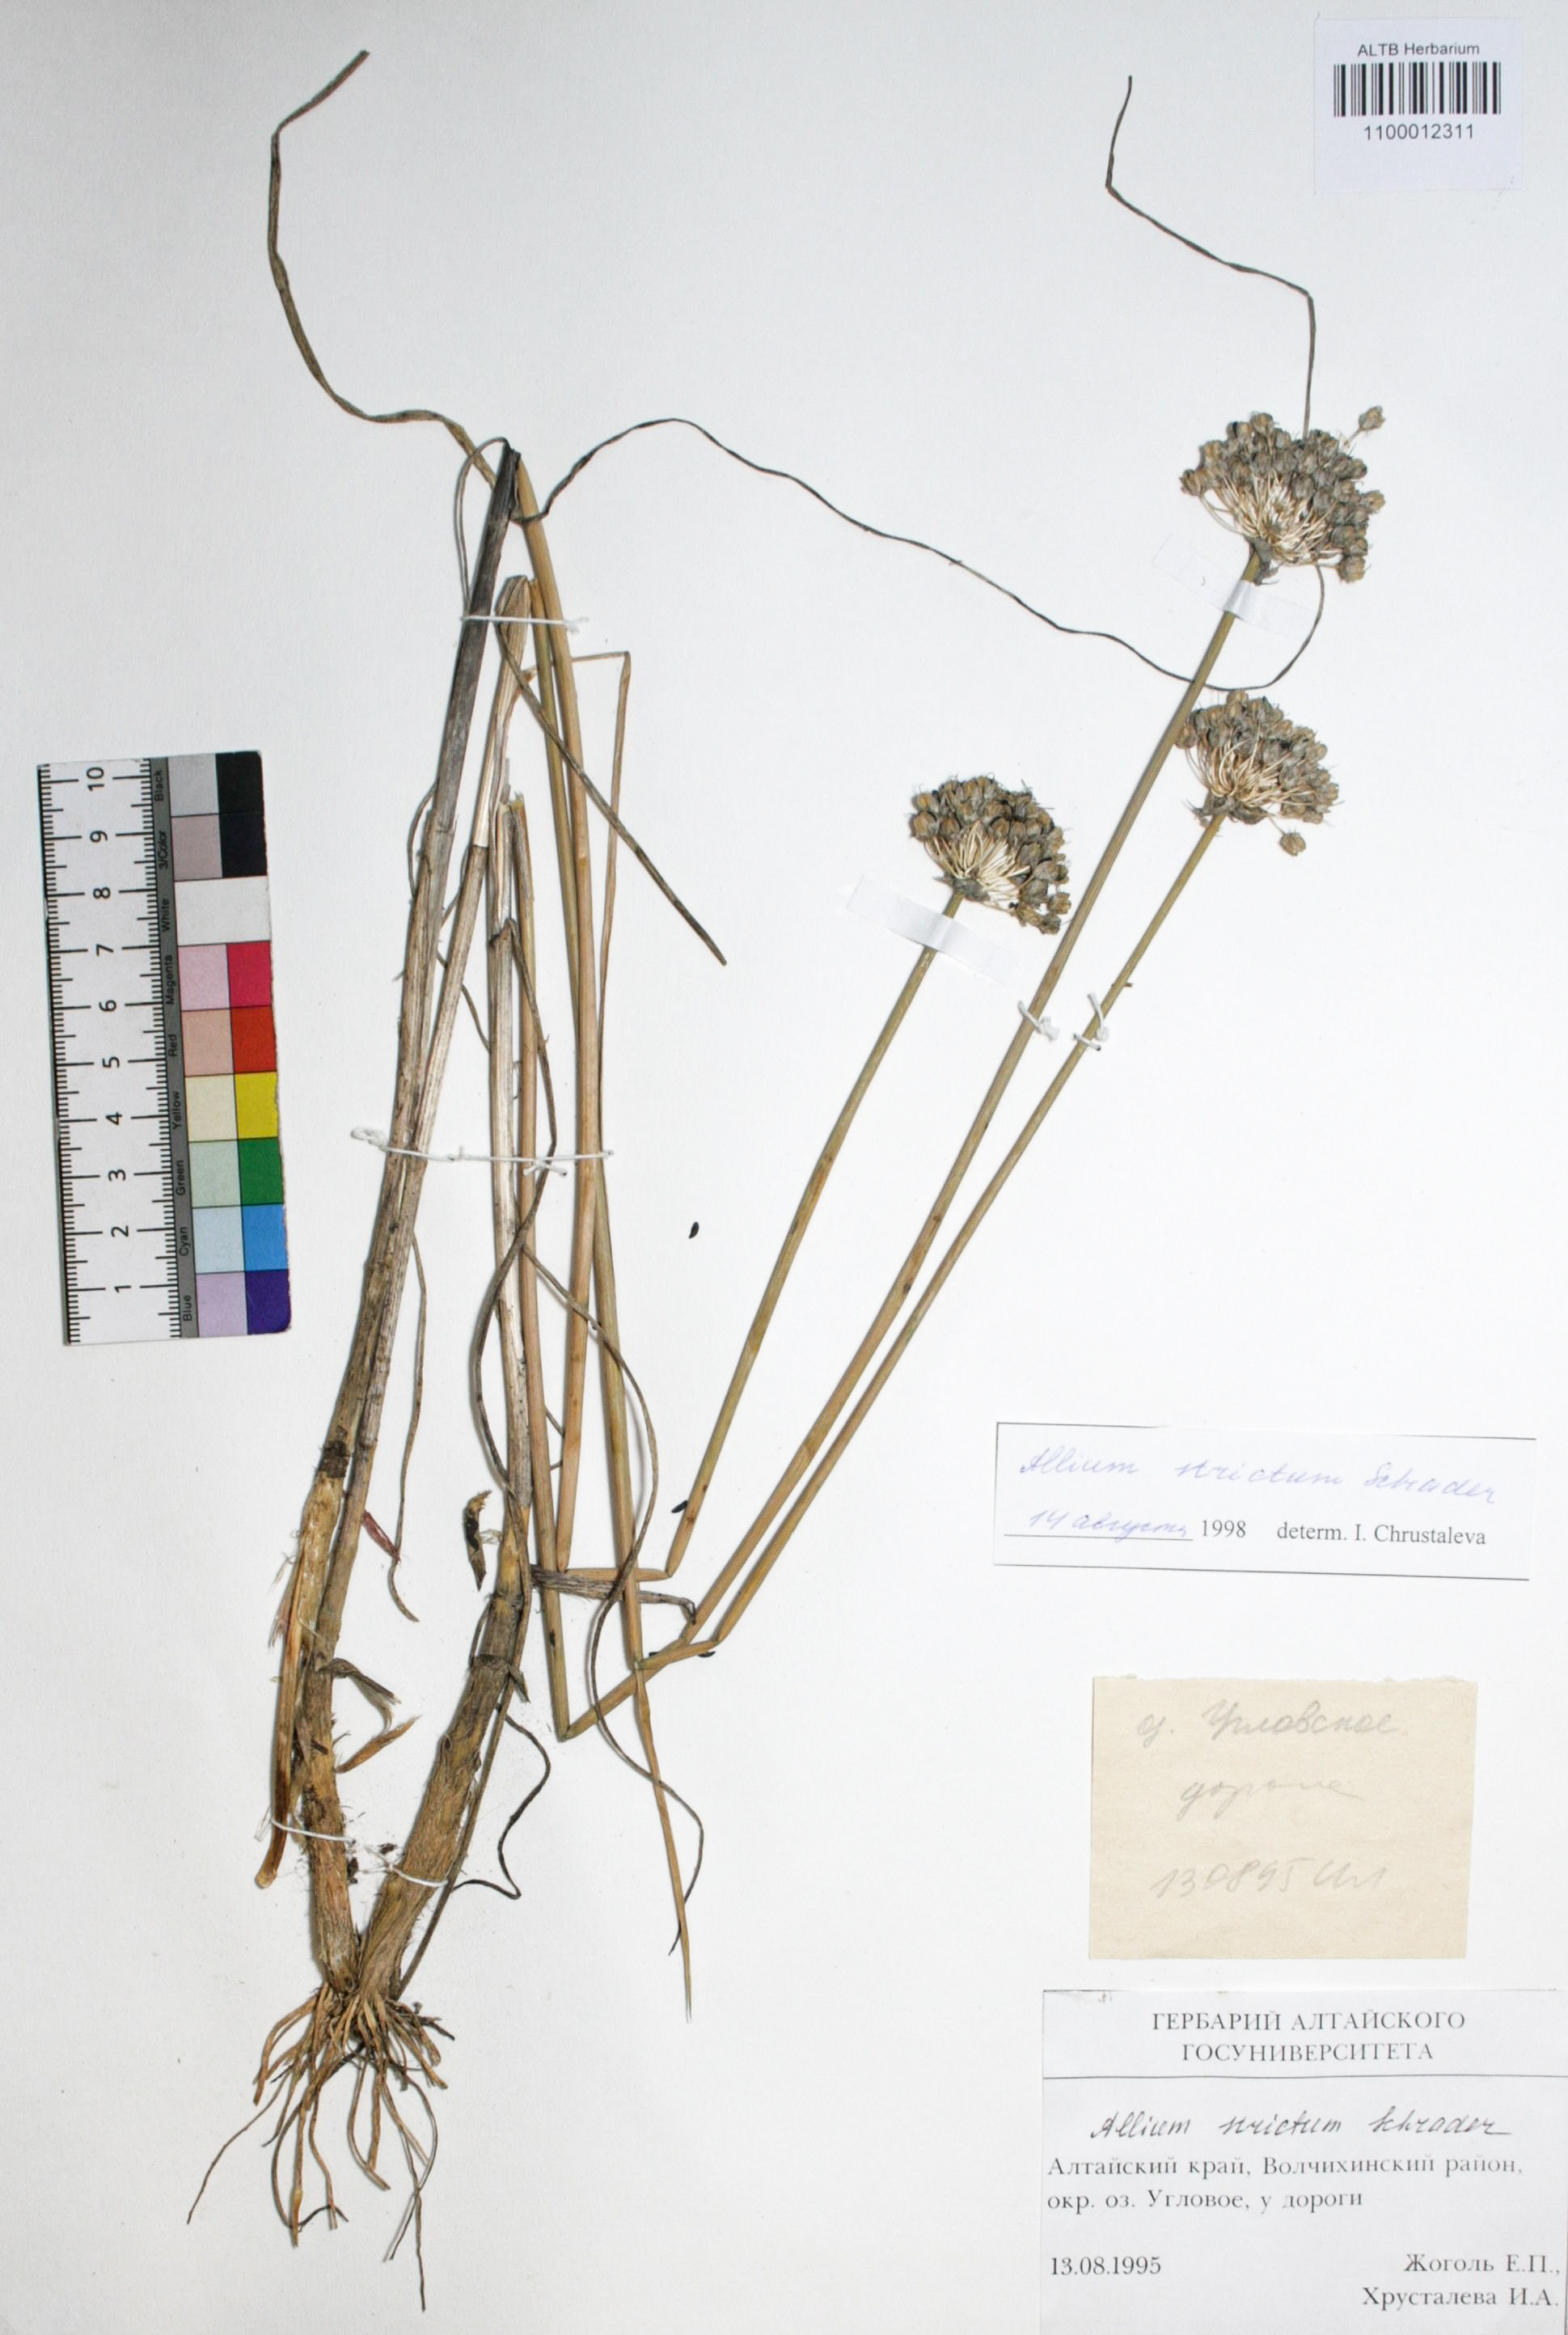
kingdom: Plantae
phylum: Tracheophyta
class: Liliopsida
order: Asparagales
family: Amaryllidaceae
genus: Allium
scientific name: Allium strictum
